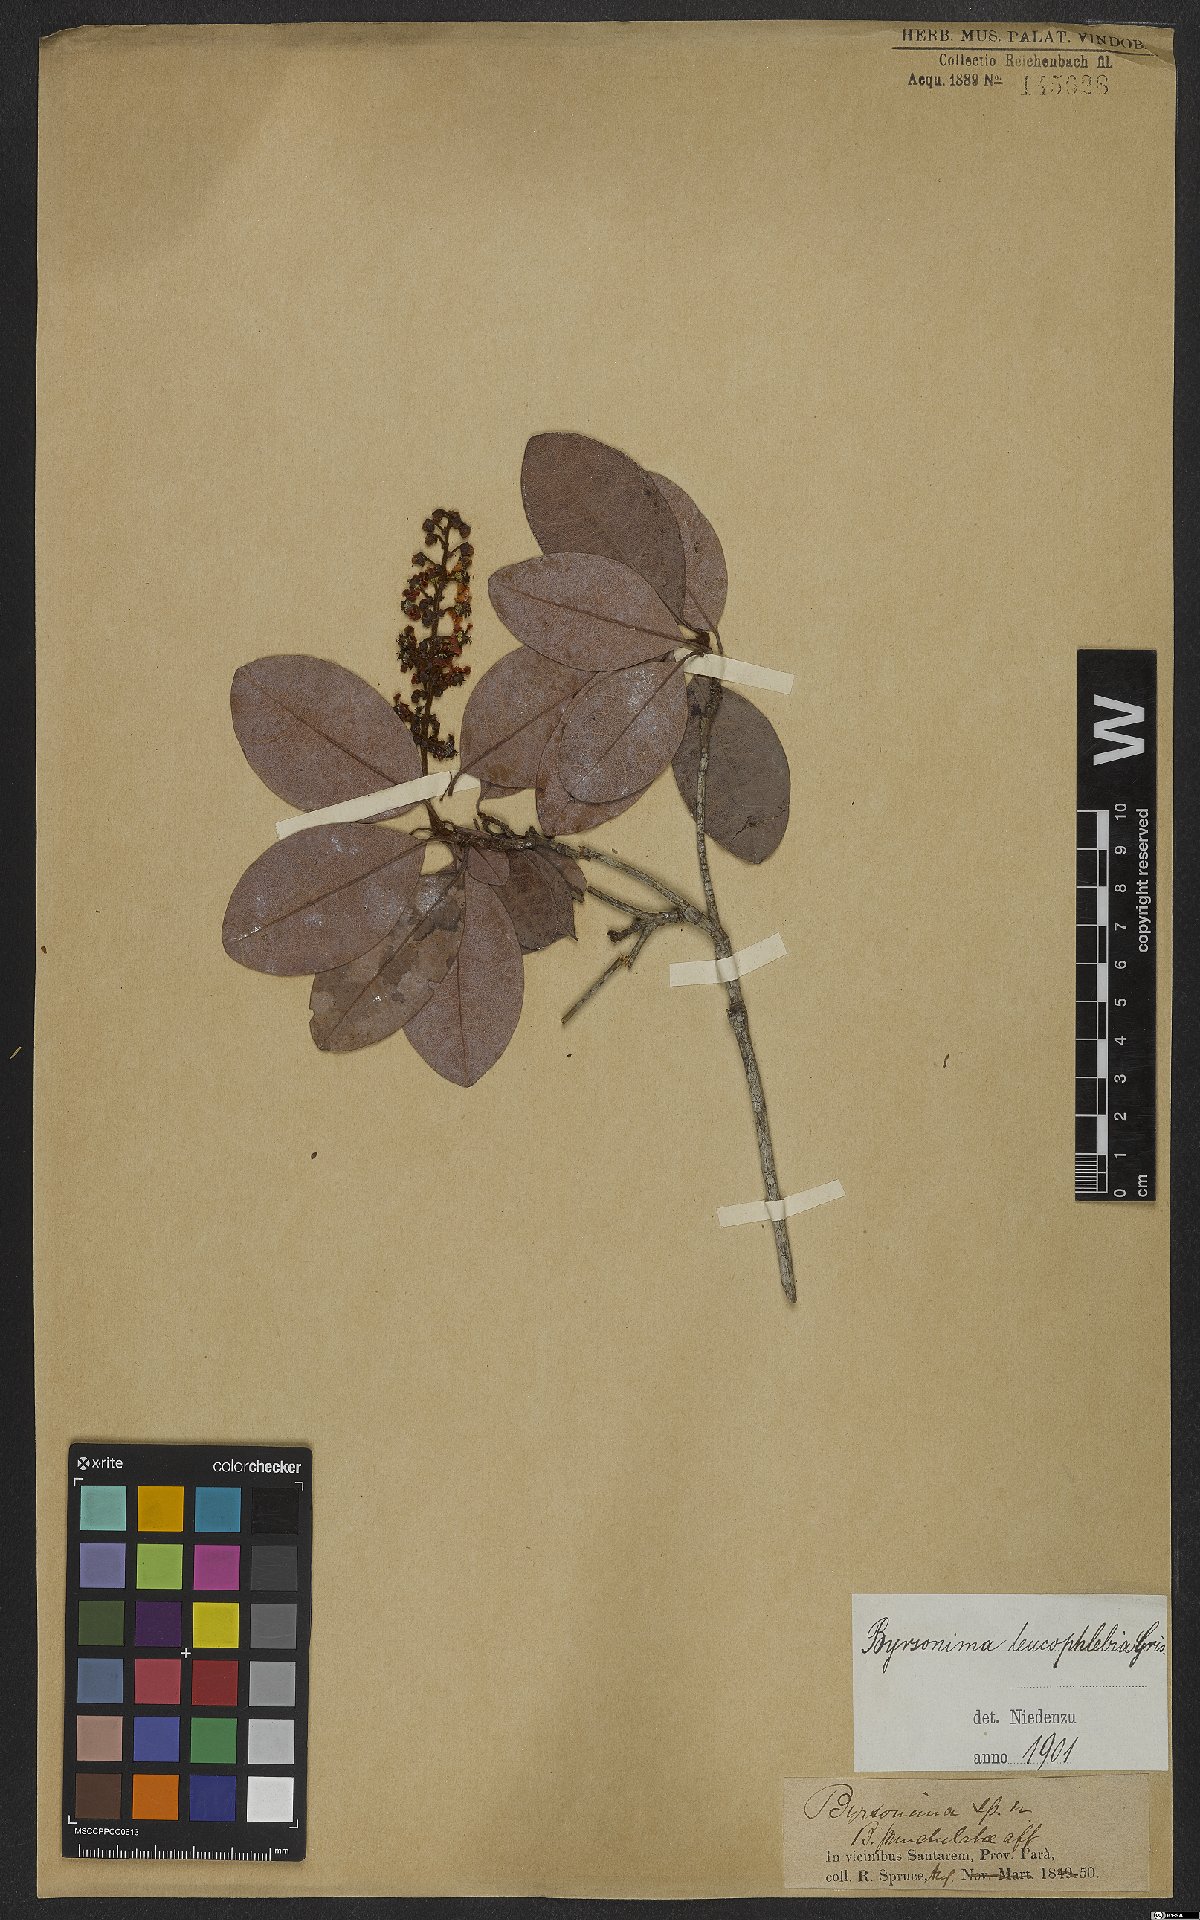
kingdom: Plantae
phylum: Tracheophyta
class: Magnoliopsida
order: Malpighiales
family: Malpighiaceae
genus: Byrsonima
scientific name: Byrsonima leucophlebia
